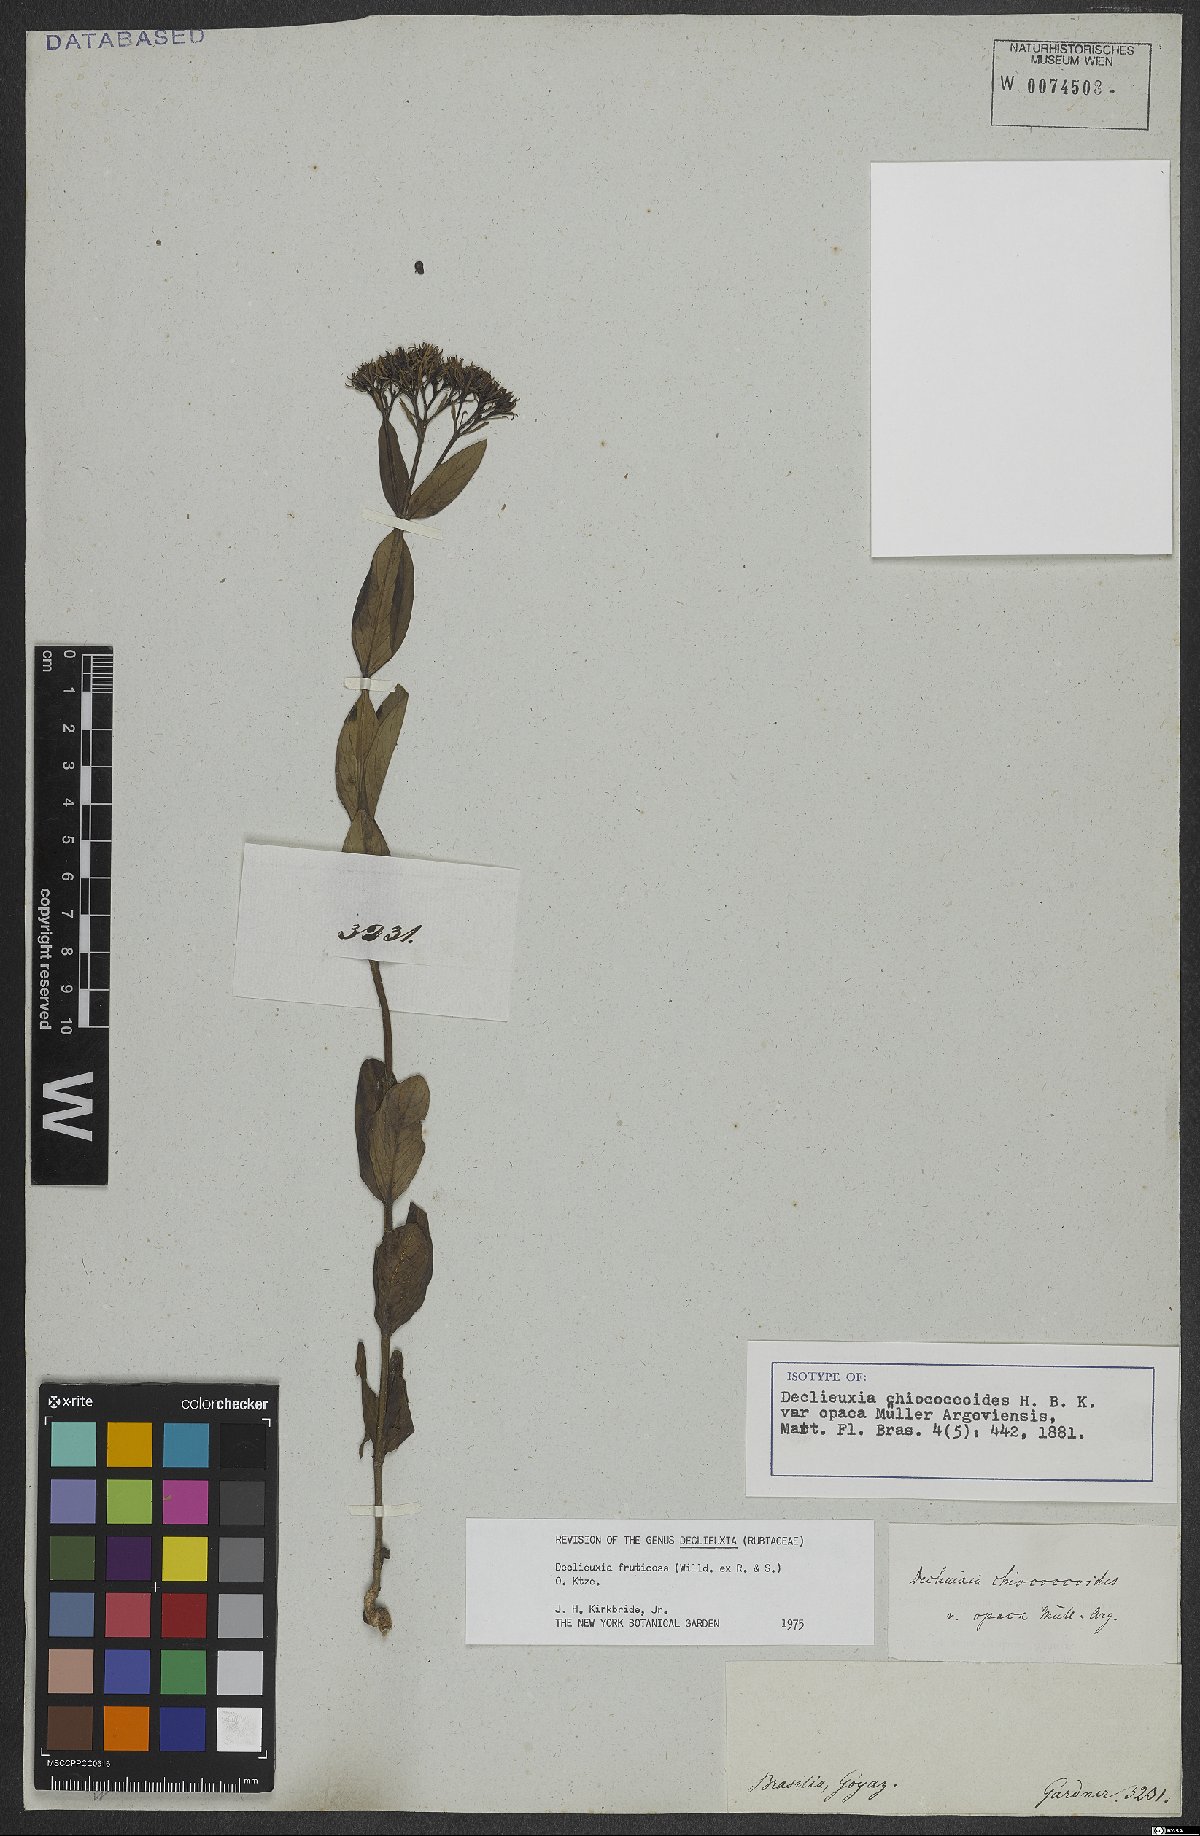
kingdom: Plantae
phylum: Tracheophyta
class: Magnoliopsida
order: Gentianales
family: Rubiaceae
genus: Declieuxia
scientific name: Declieuxia fruticosa
